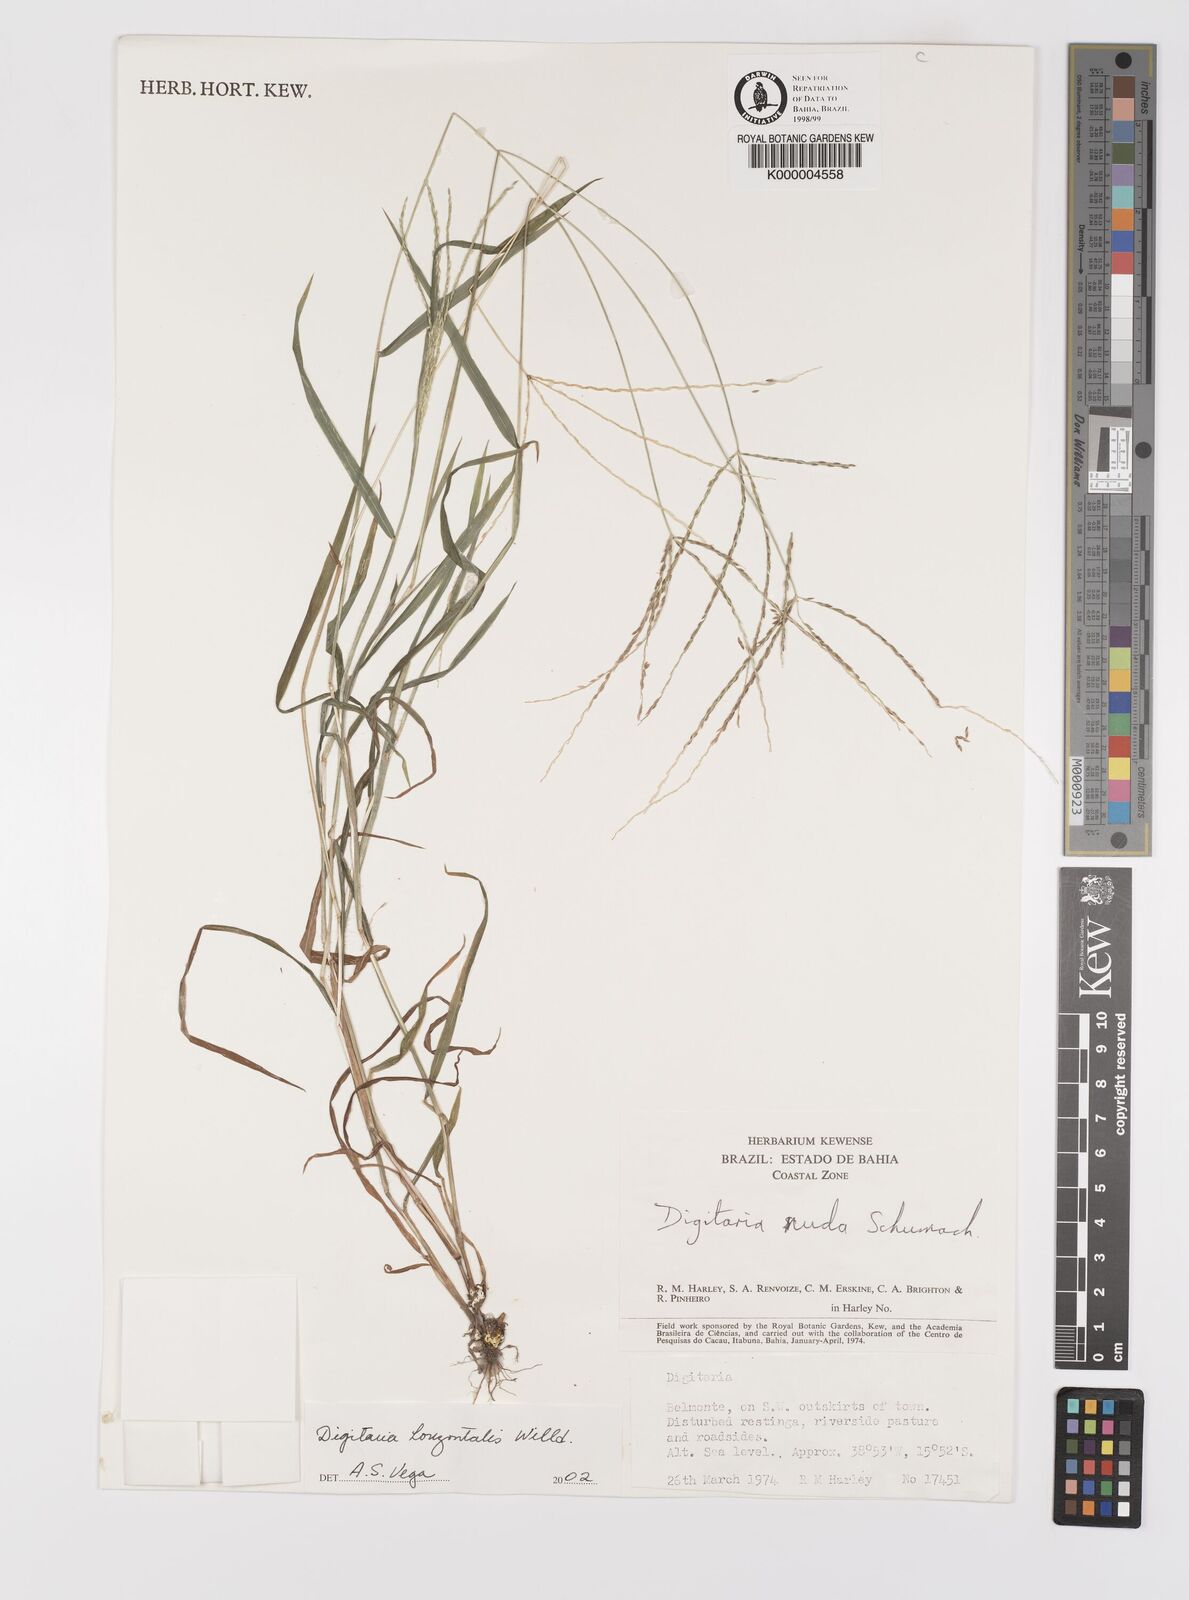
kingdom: Plantae
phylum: Tracheophyta
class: Liliopsida
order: Poales
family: Poaceae
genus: Digitaria
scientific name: Digitaria nuda
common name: Naked crabgrass
